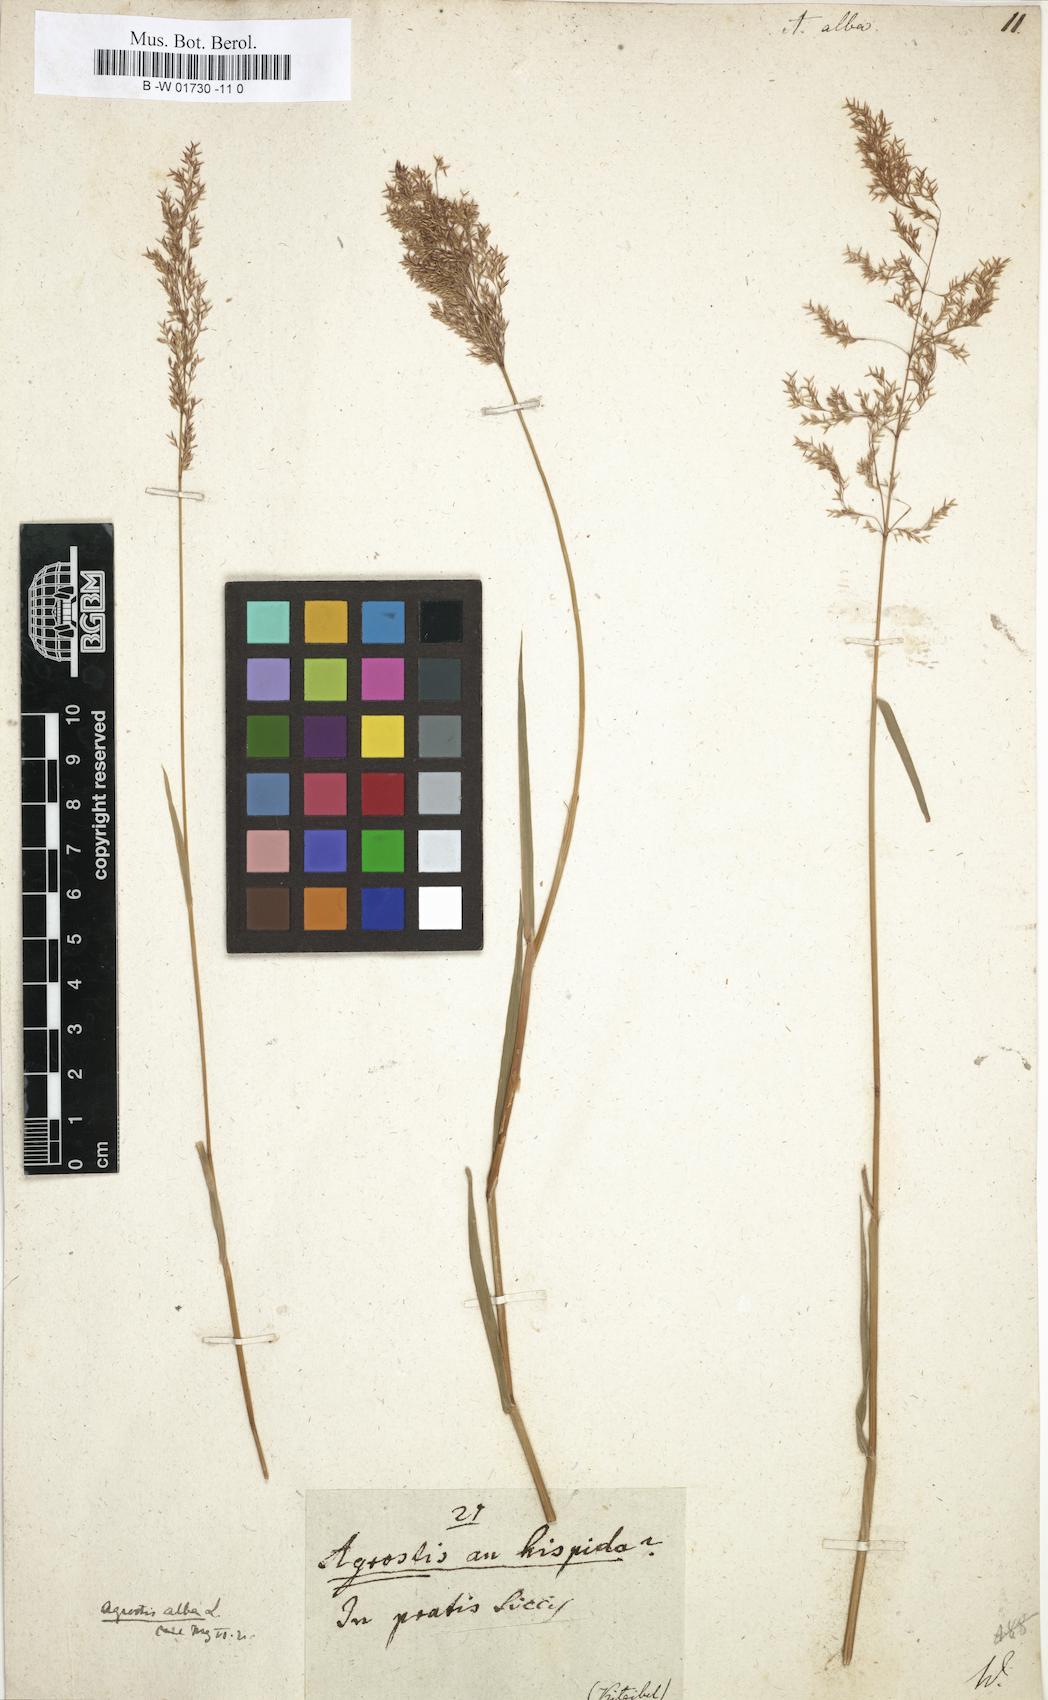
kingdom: Plantae
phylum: Tracheophyta
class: Liliopsida
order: Poales
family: Poaceae
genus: Poa
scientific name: Poa nemoralis
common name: Wood bluegrass
